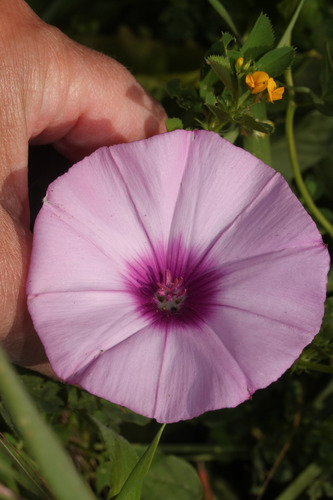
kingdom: Plantae
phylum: Tracheophyta
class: Magnoliopsida
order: Solanales
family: Convolvulaceae
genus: Convolvulus
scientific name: Convolvulus althaeoides
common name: Mallow bindweed
